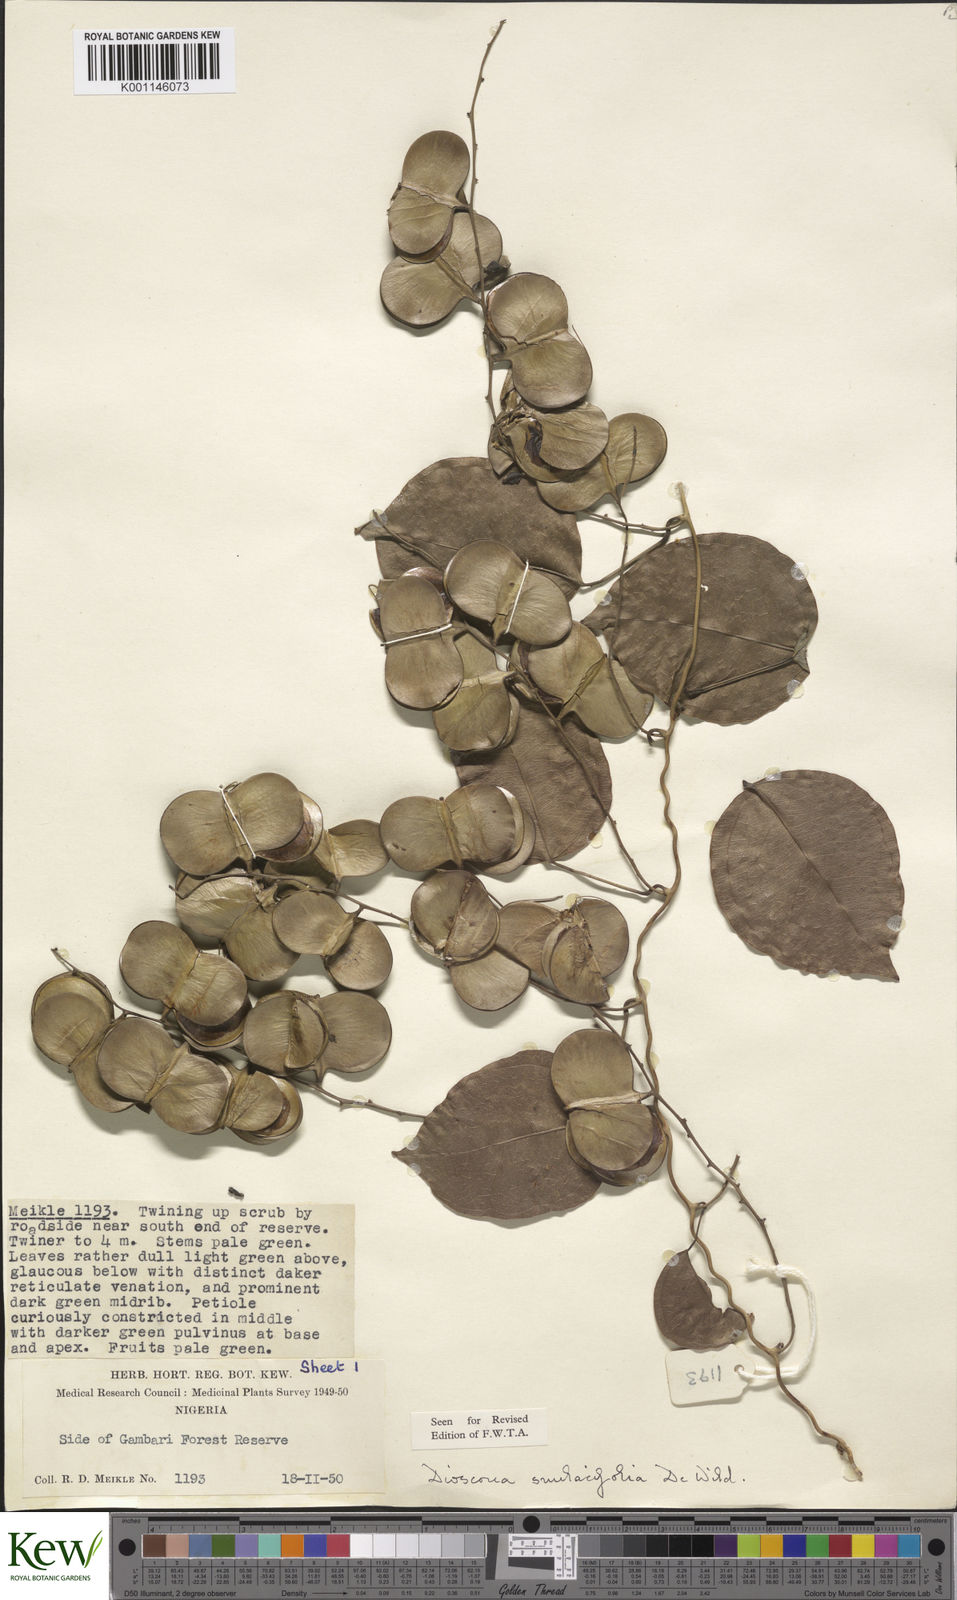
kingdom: Plantae
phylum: Tracheophyta
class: Liliopsida
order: Dioscoreales
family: Dioscoreaceae
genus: Dioscorea
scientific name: Dioscorea smilacifolia
